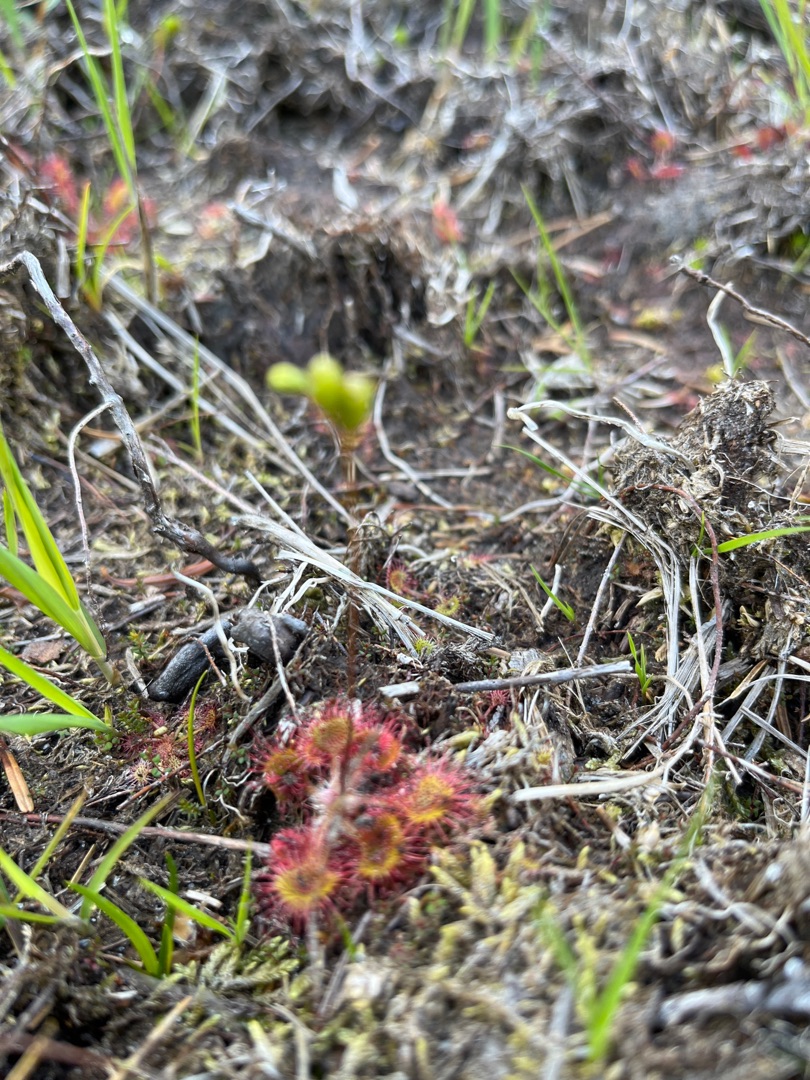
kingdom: Plantae
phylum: Tracheophyta
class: Magnoliopsida
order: Caryophyllales
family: Droseraceae
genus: Drosera
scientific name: Drosera rotundifolia
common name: Rundbladet soldug
